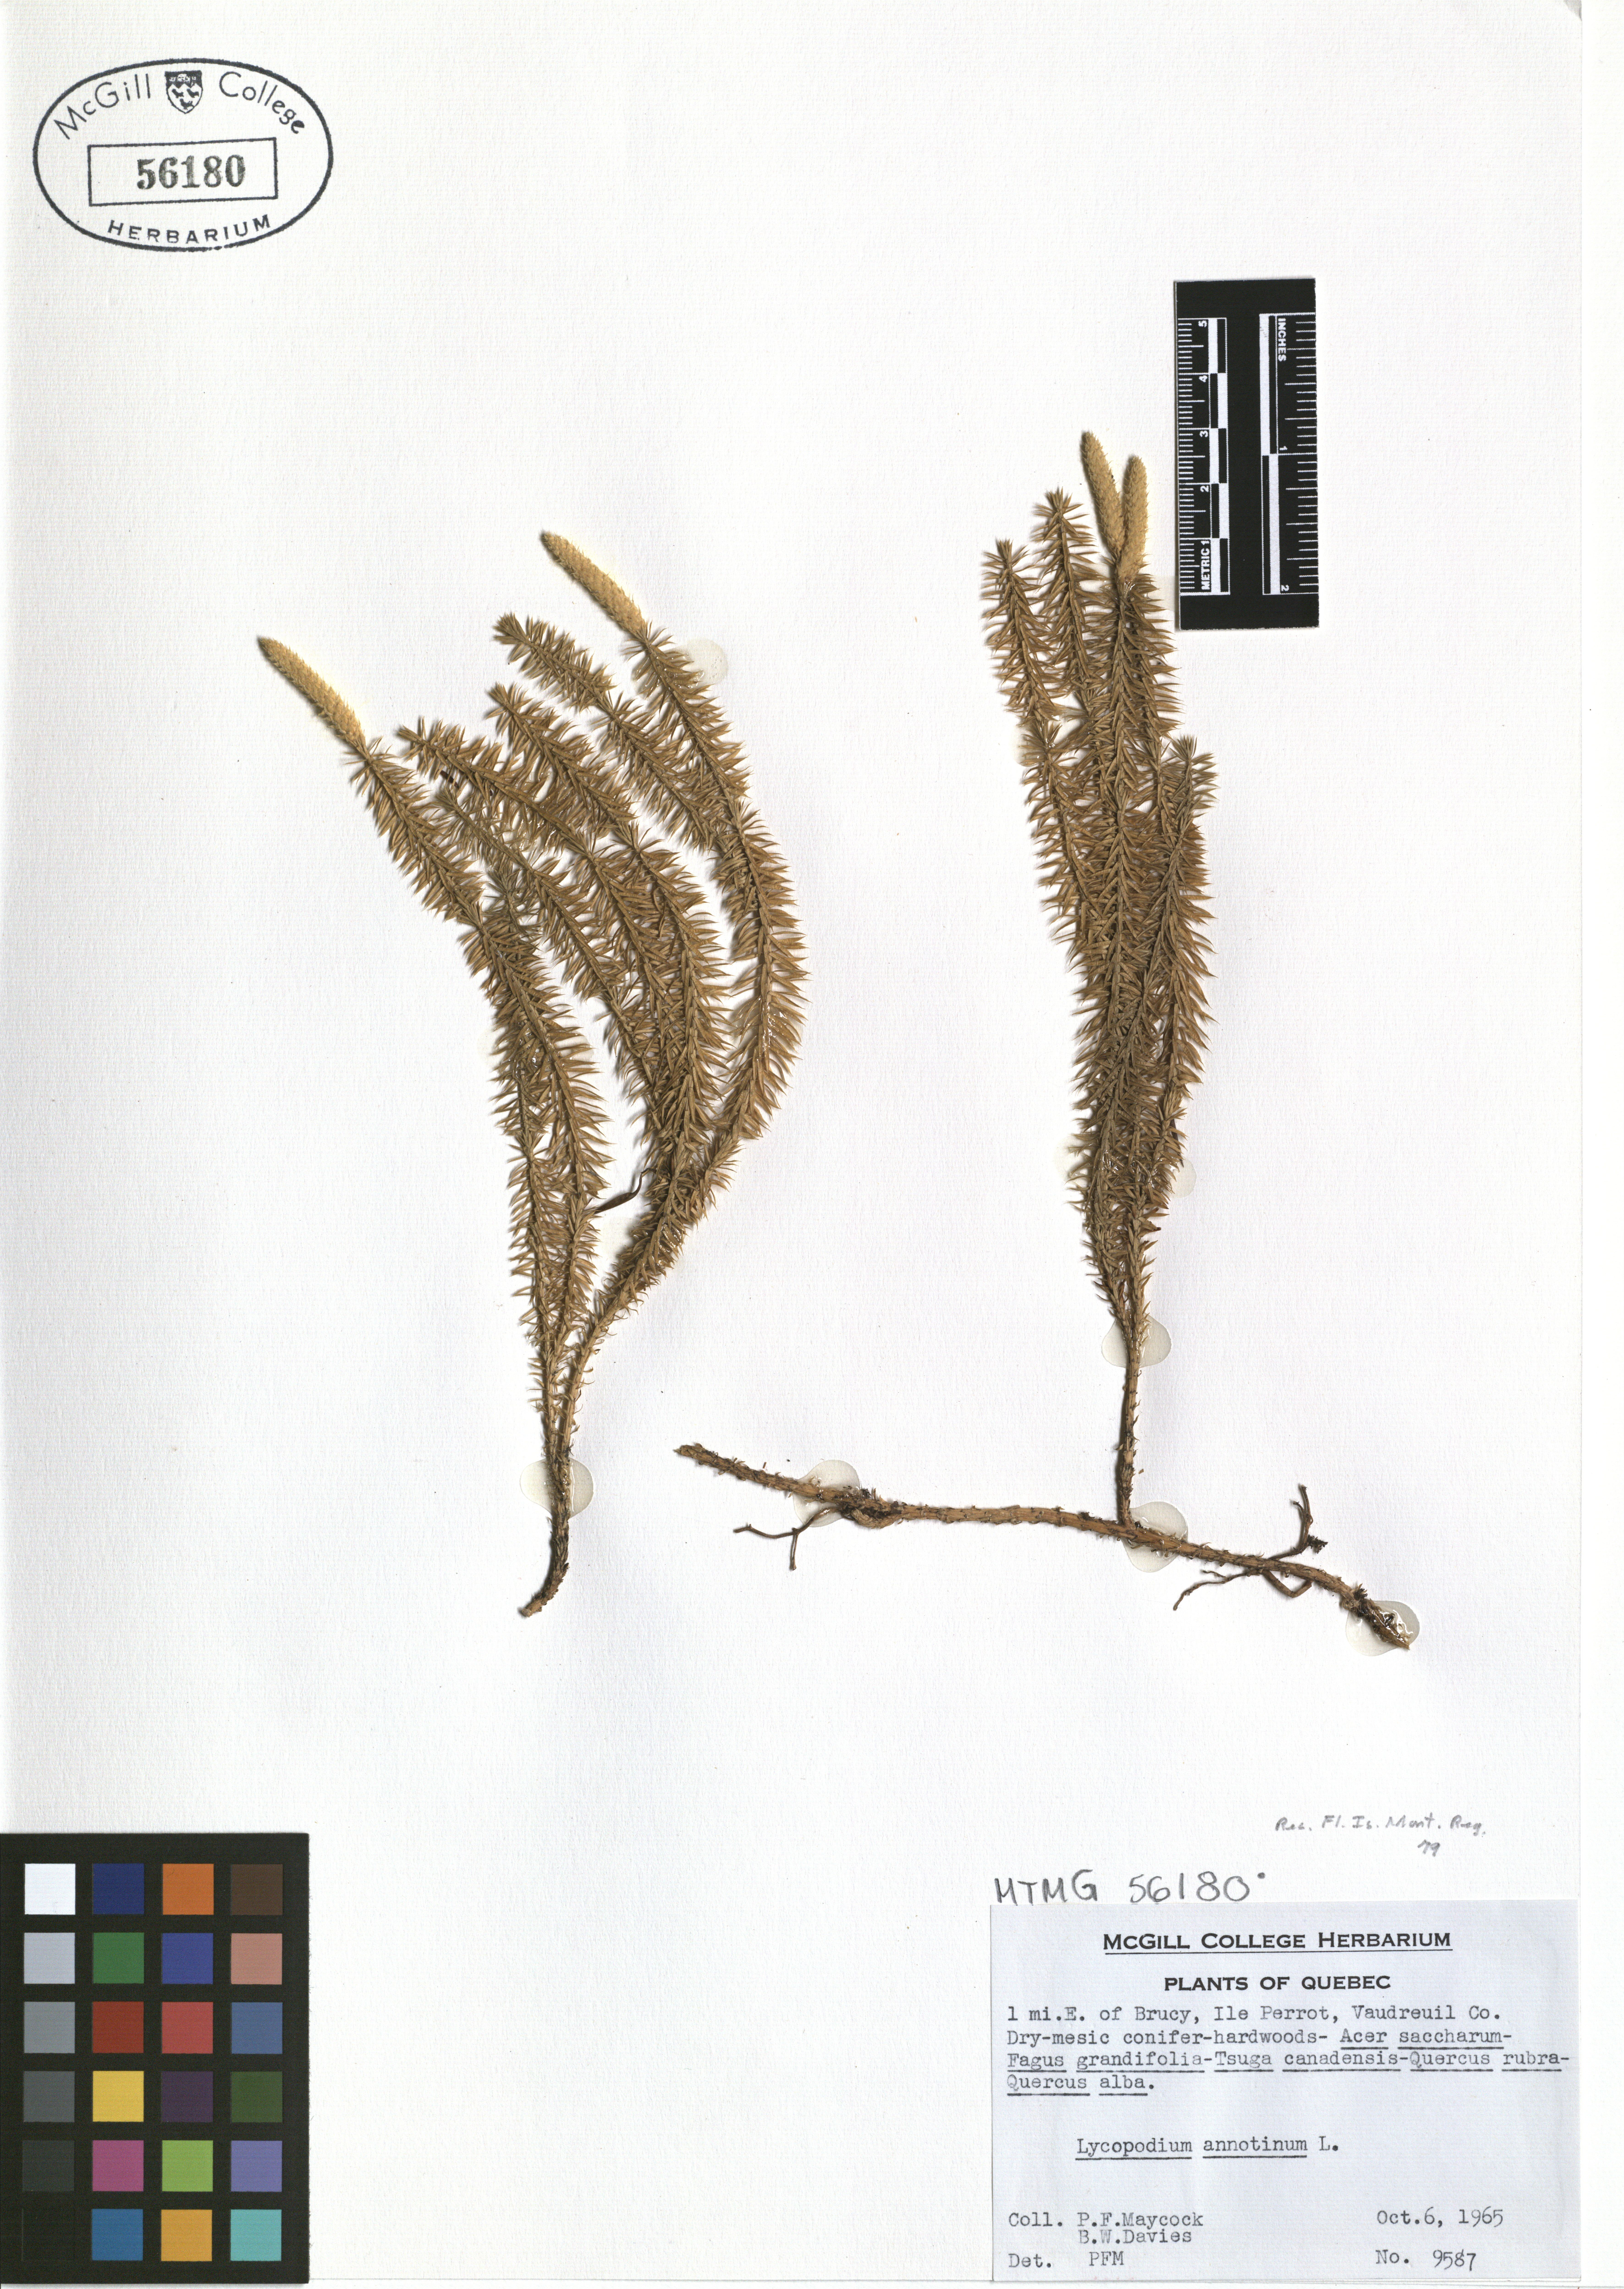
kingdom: Plantae
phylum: Tracheophyta
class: Lycopodiopsida
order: Lycopodiales
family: Lycopodiaceae
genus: Spinulum
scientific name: Spinulum annotinum
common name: Interrupted club-moss
